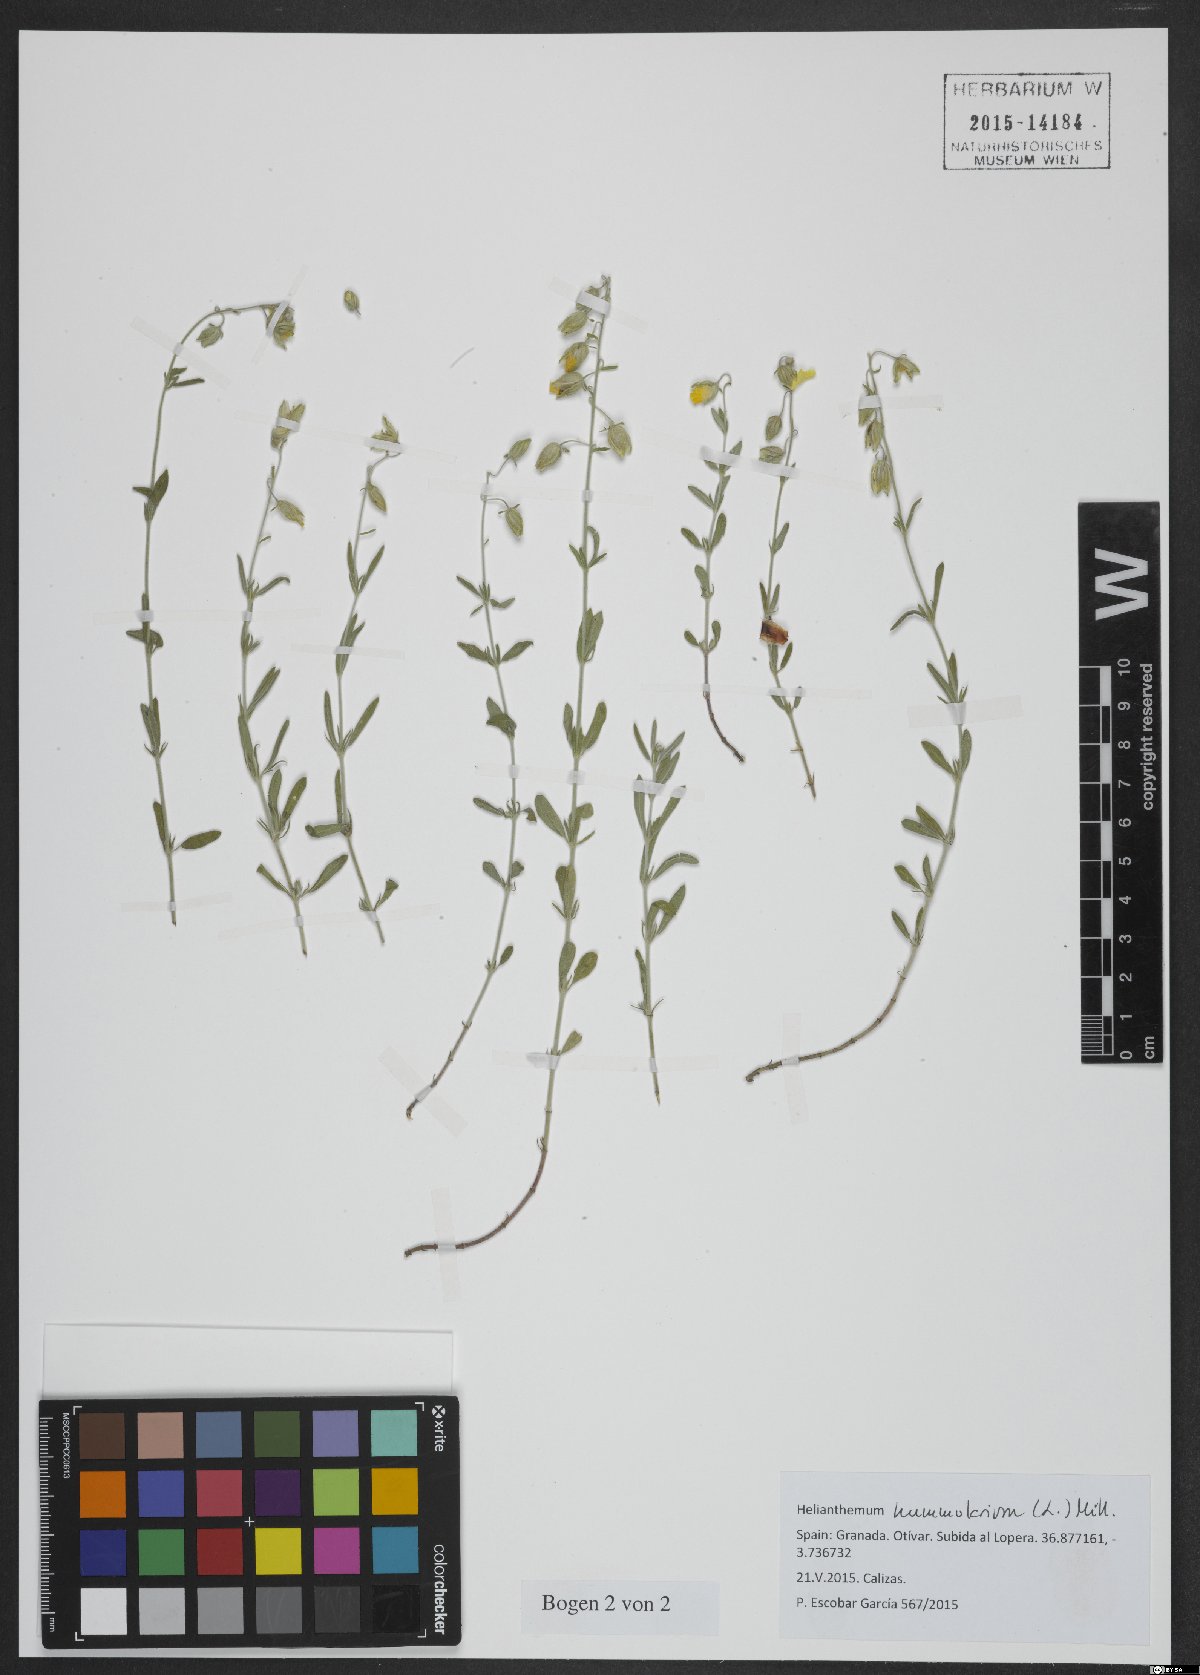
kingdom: Plantae
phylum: Tracheophyta
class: Magnoliopsida
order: Malvales
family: Cistaceae
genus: Helianthemum
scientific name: Helianthemum nummularium
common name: Common rock-rose
